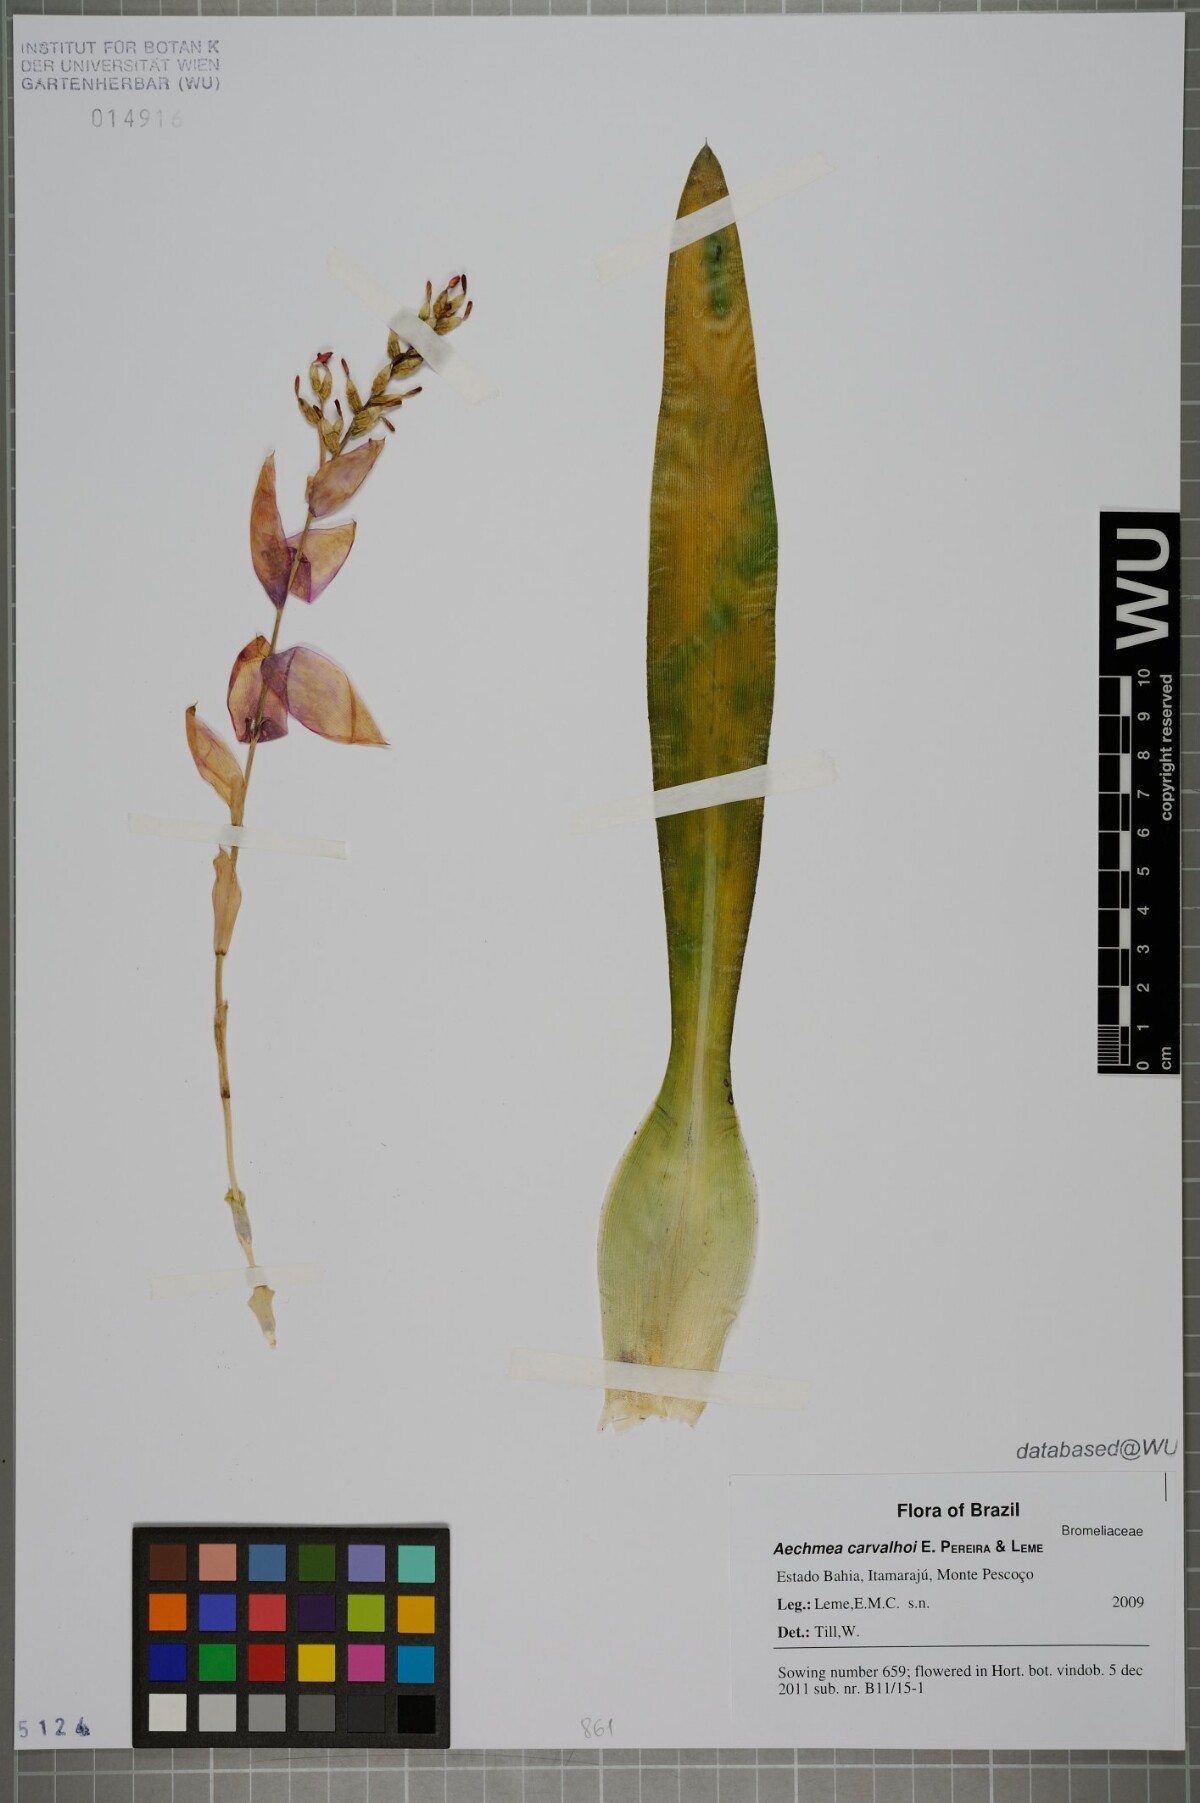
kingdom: Plantae
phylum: Tracheophyta
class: Liliopsida
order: Poales
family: Bromeliaceae
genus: Aechmea
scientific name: Aechmea carvalhoi
